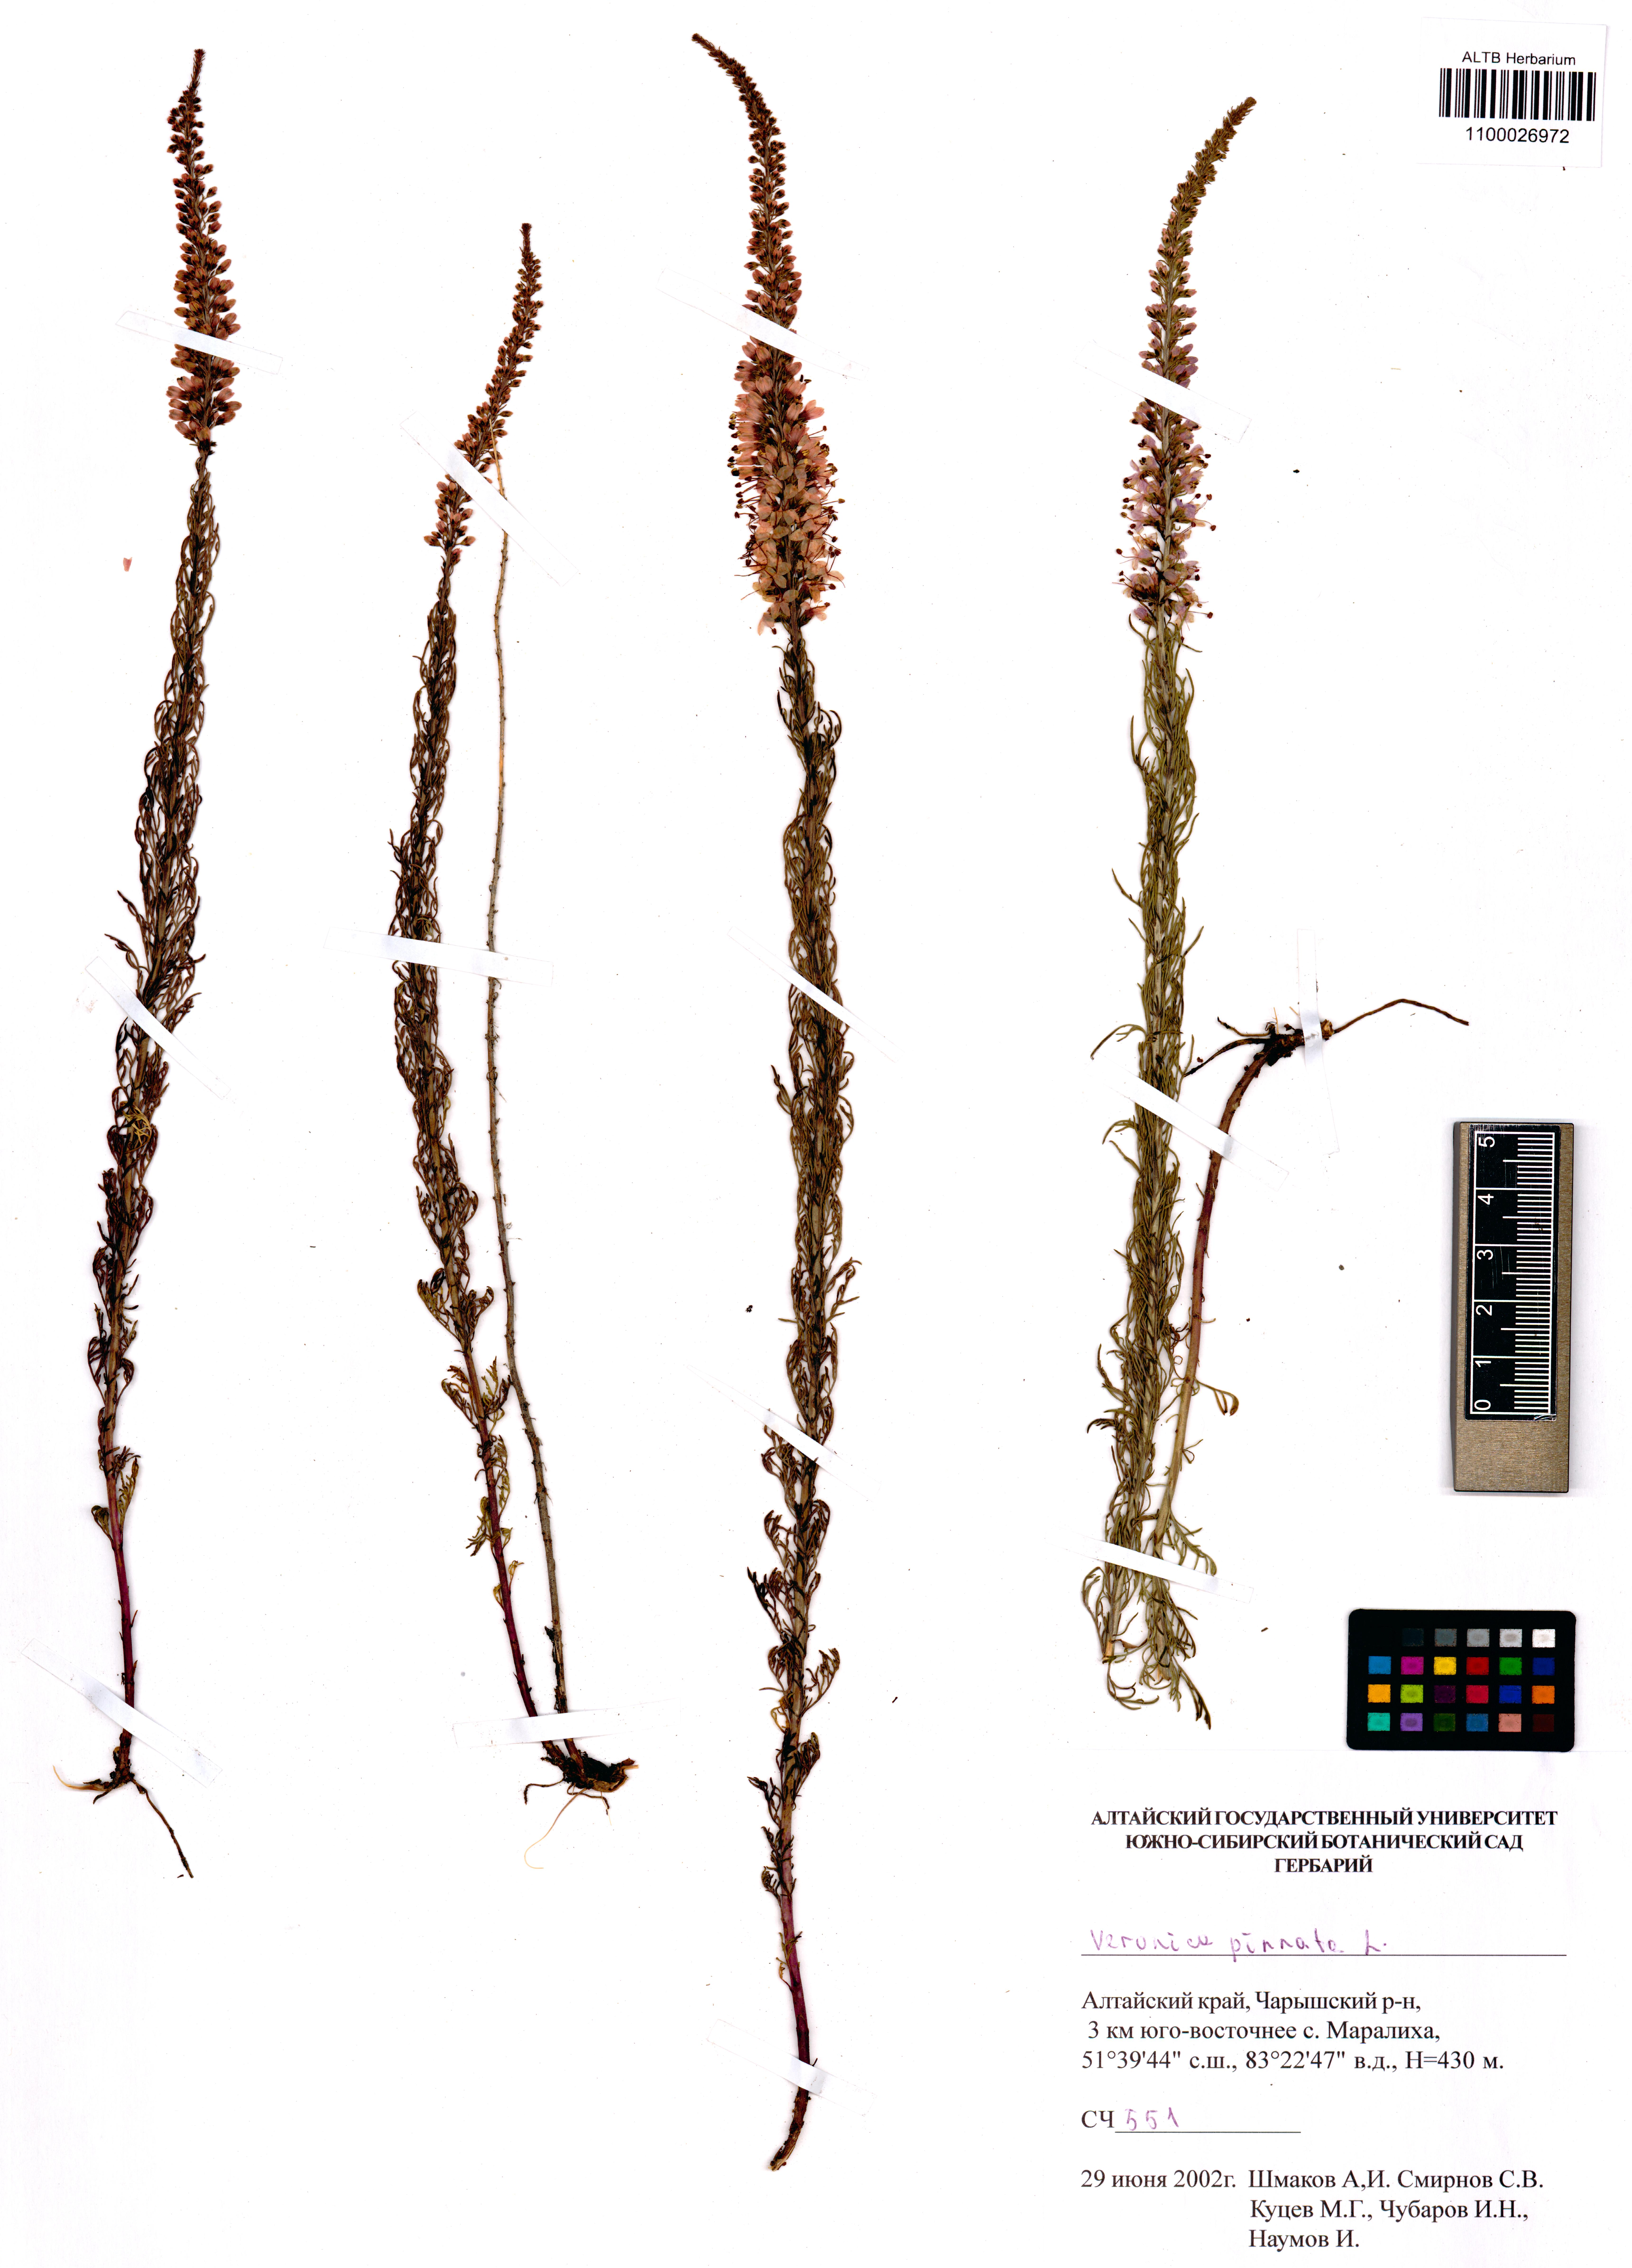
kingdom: Plantae
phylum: Tracheophyta
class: Magnoliopsida
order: Lamiales
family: Plantaginaceae
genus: Veronica
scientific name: Veronica pinnata
